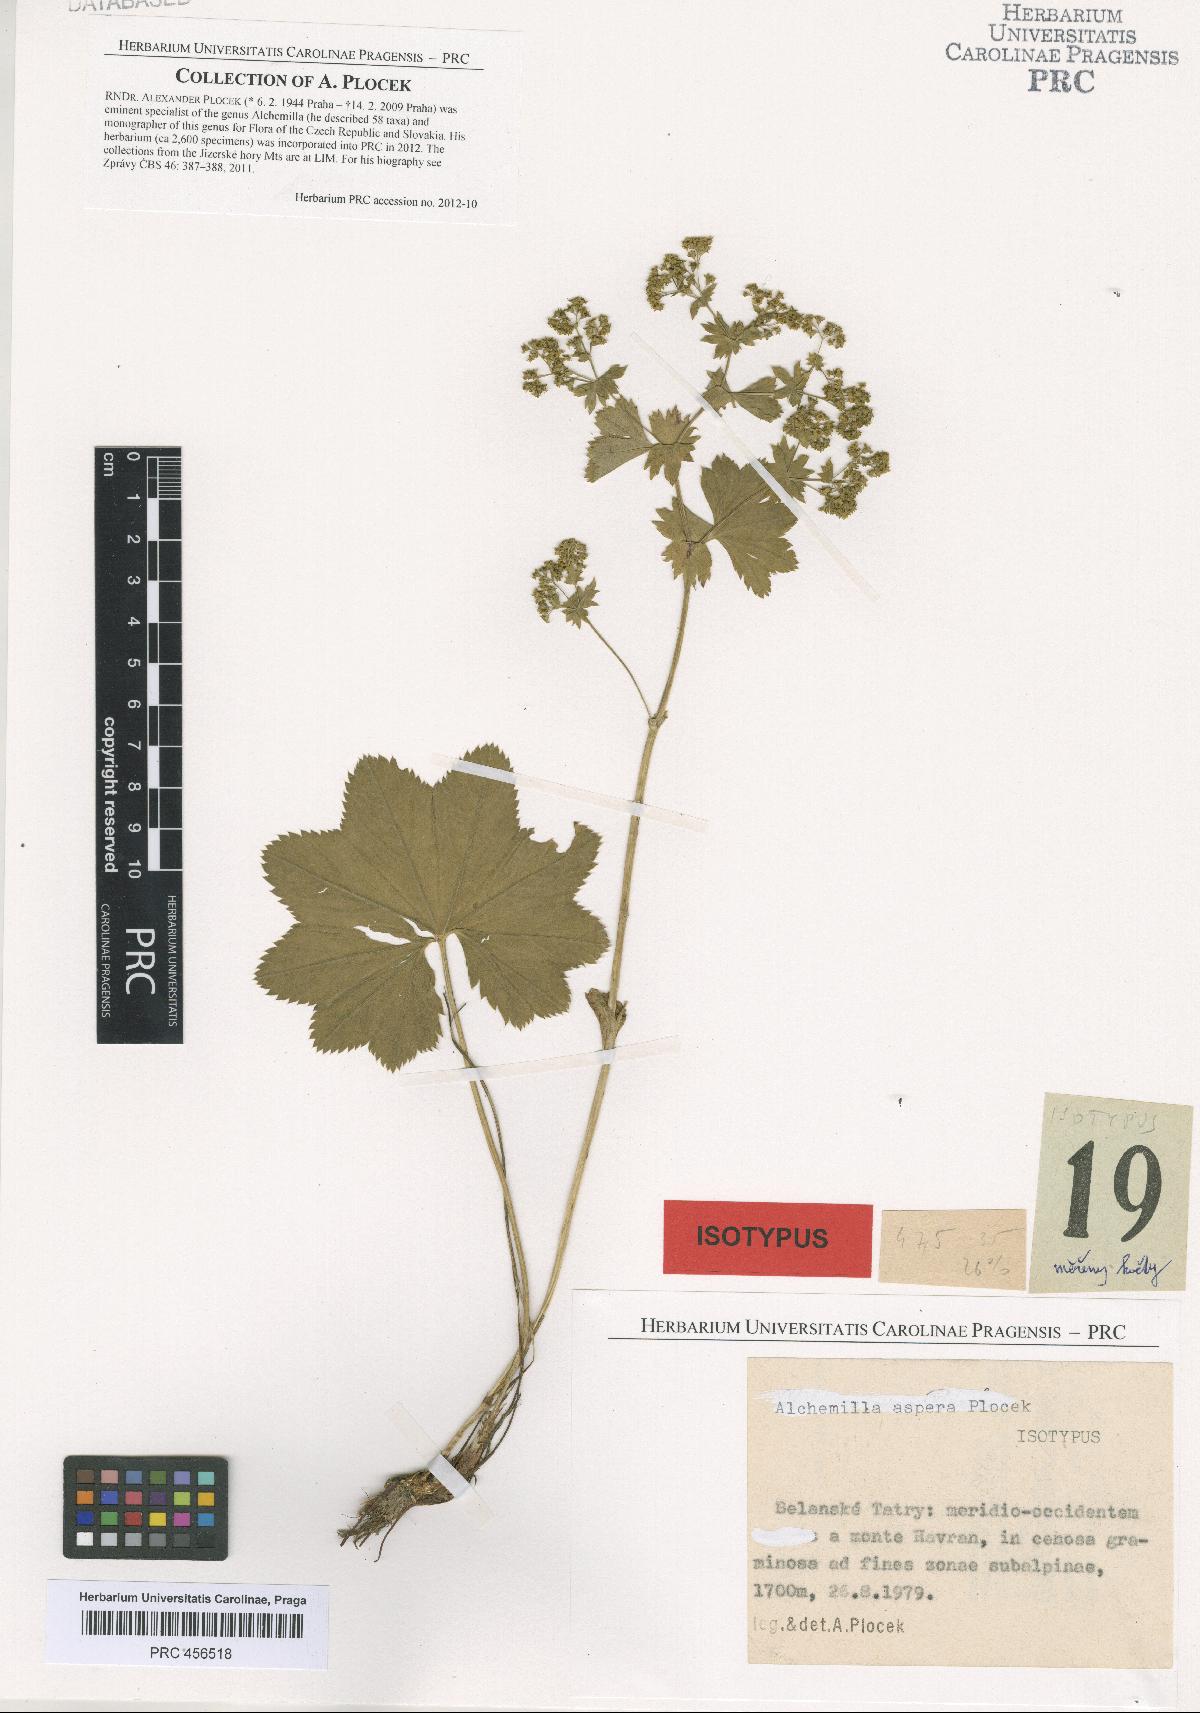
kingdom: Plantae
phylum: Tracheophyta
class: Magnoliopsida
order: Rosales
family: Rosaceae
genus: Alchemilla
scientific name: Alchemilla aspera
